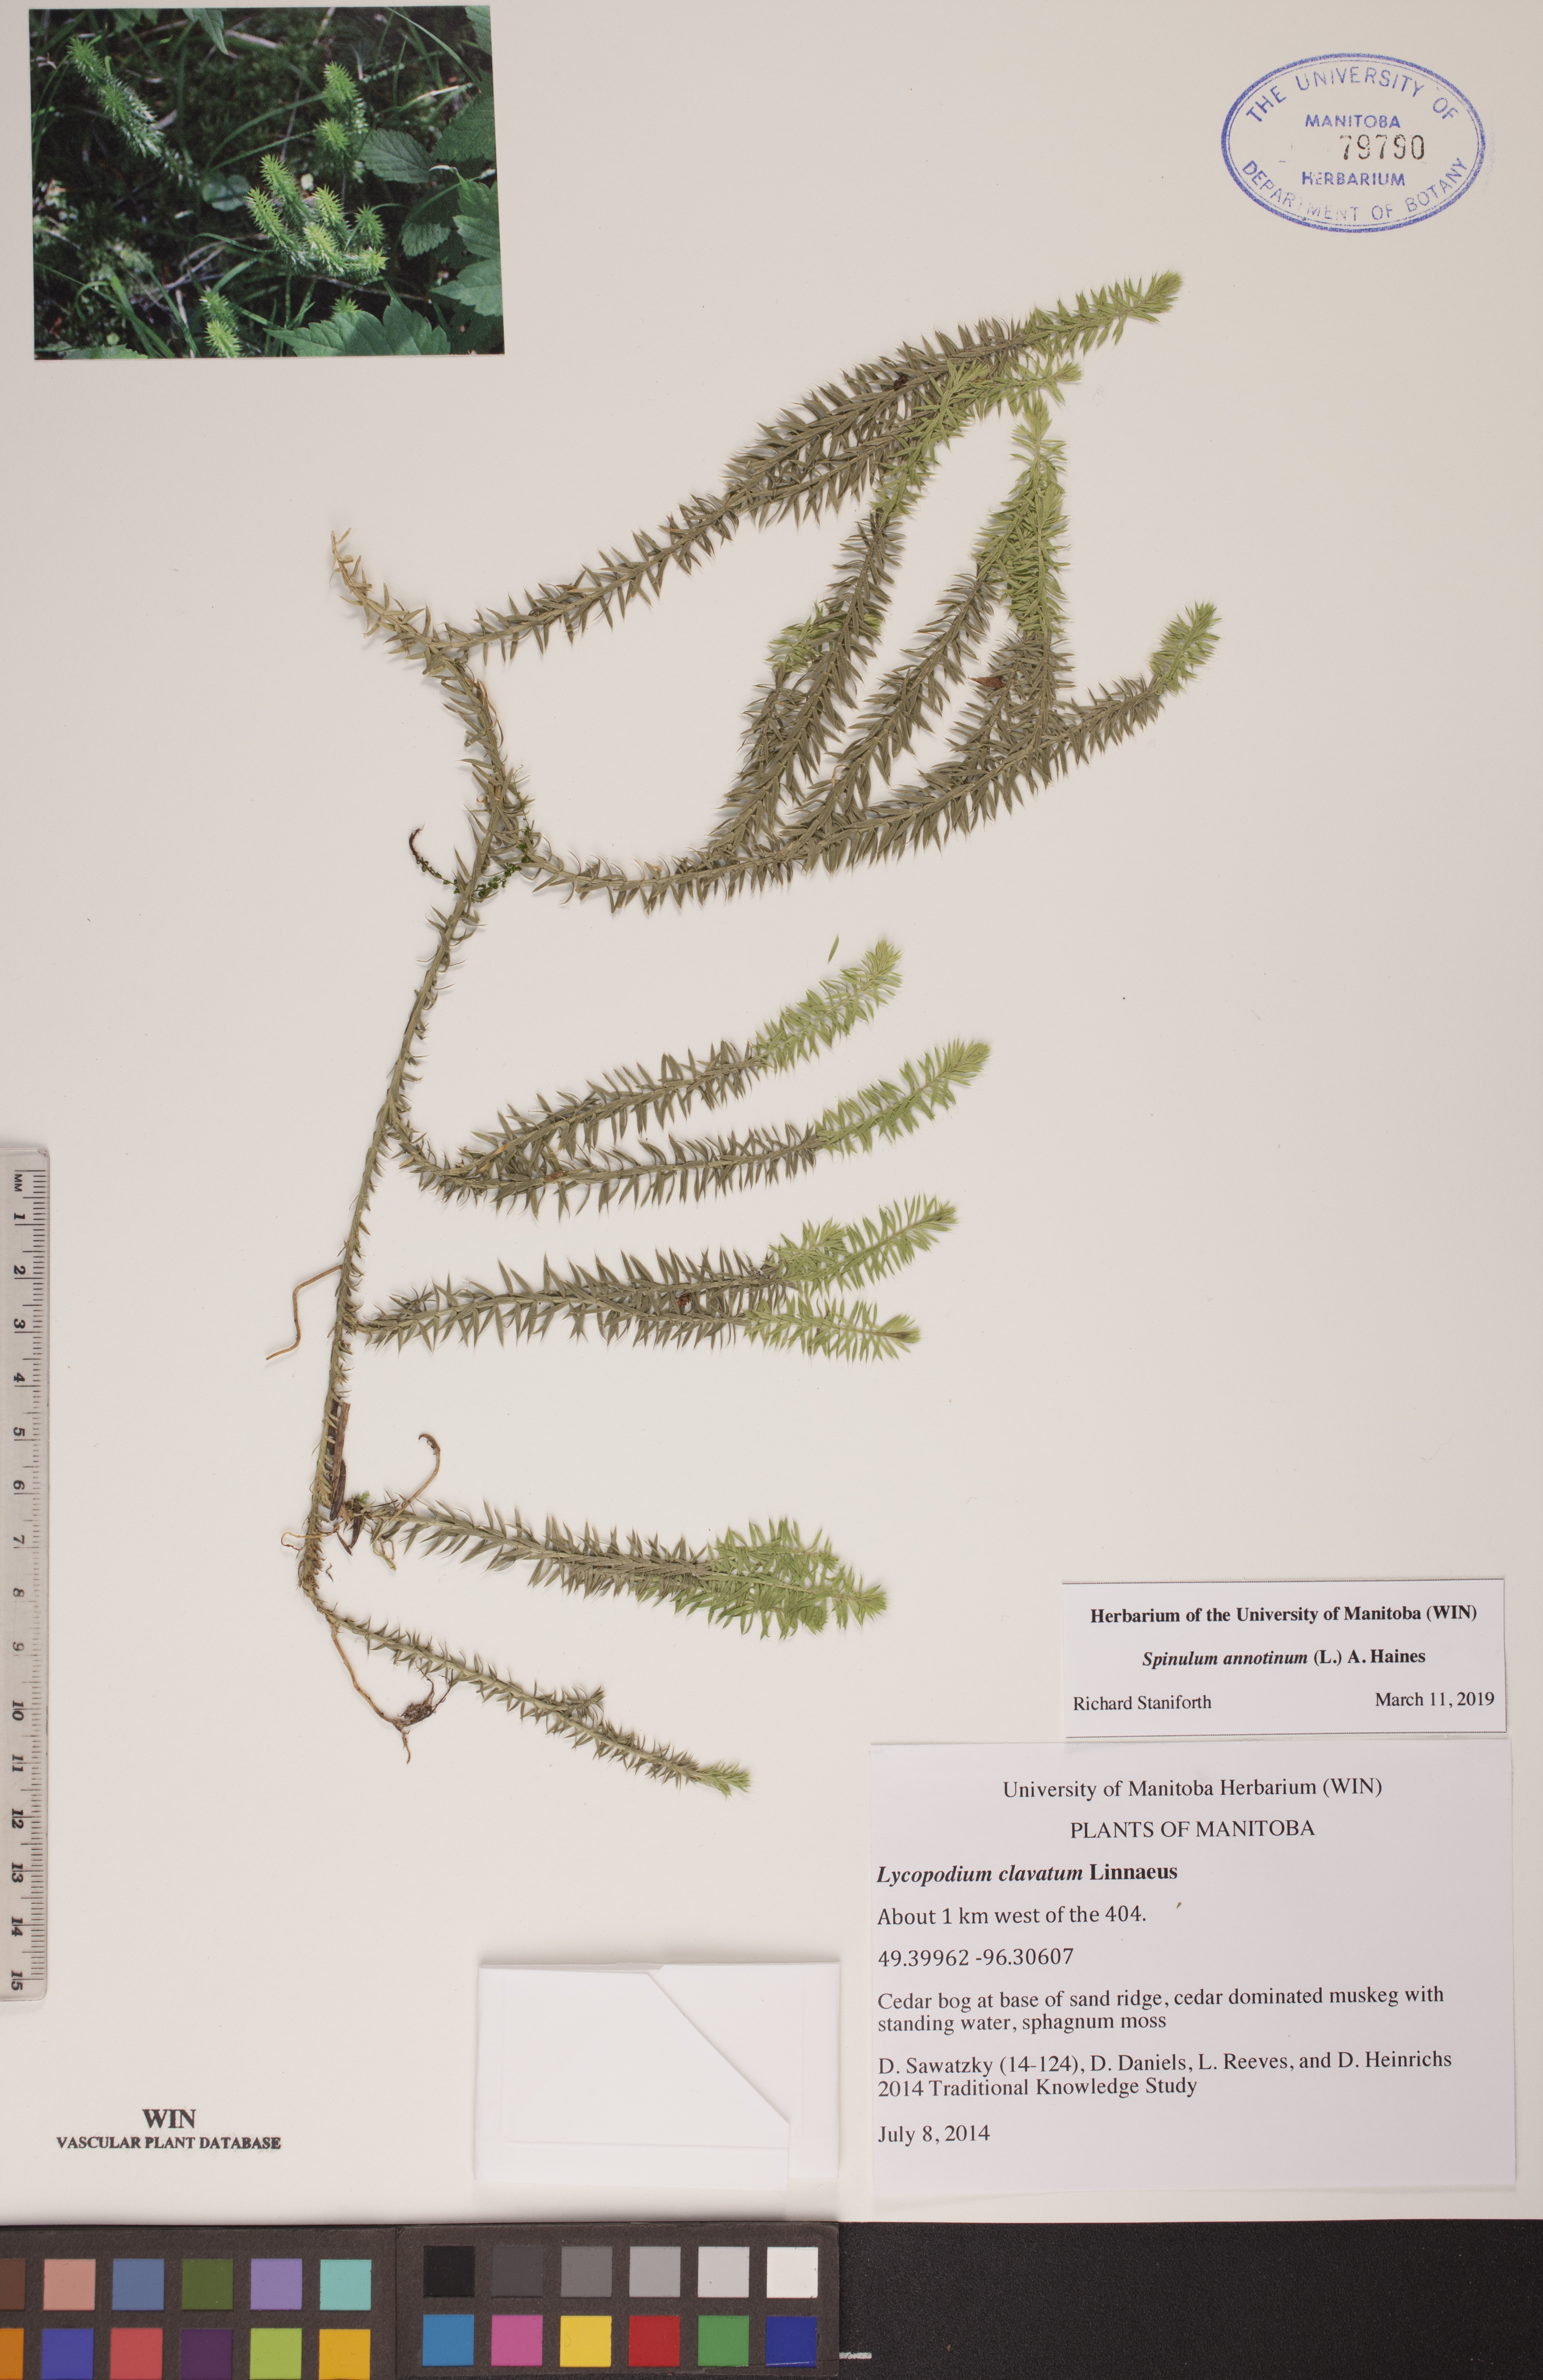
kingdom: Plantae
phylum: Tracheophyta
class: Lycopodiopsida
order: Lycopodiales
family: Lycopodiaceae
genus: Spinulum
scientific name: Spinulum annotinum
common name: Interrupted club-moss
